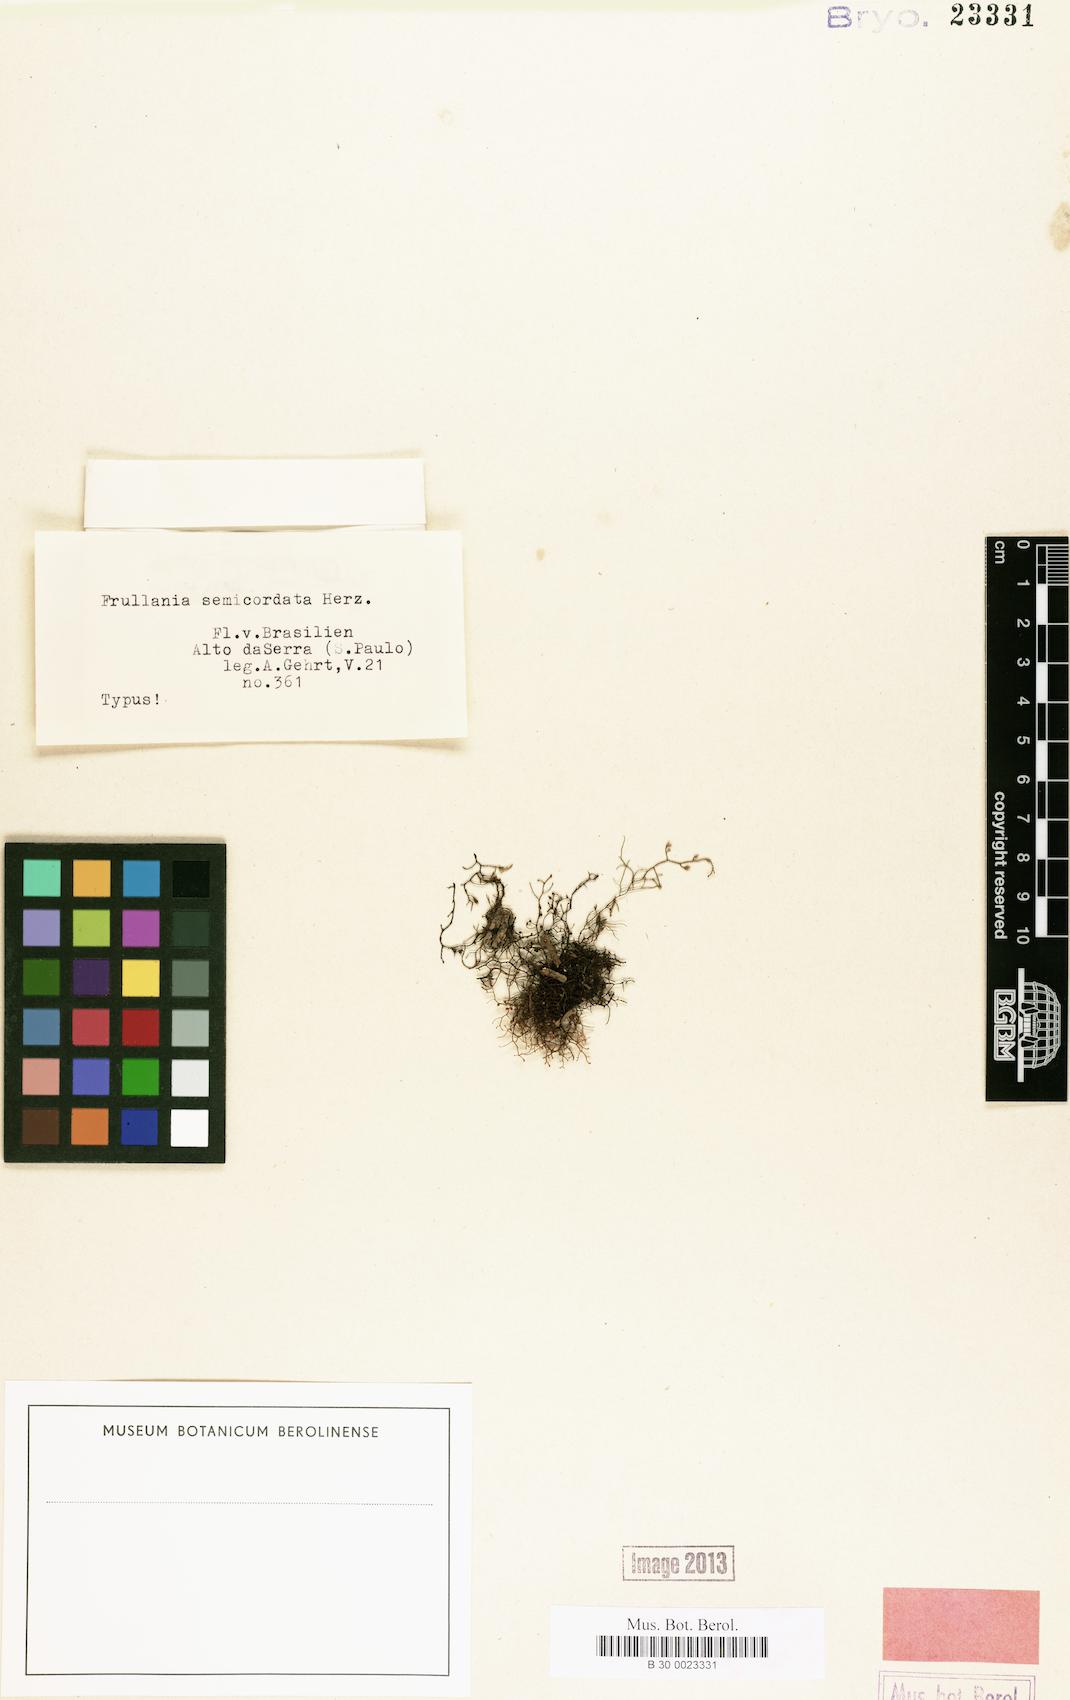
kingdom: Plantae
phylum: Marchantiophyta
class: Jungermanniopsida
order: Porellales
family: Frullaniaceae
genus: Frullania
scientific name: Frullania tetraptera
